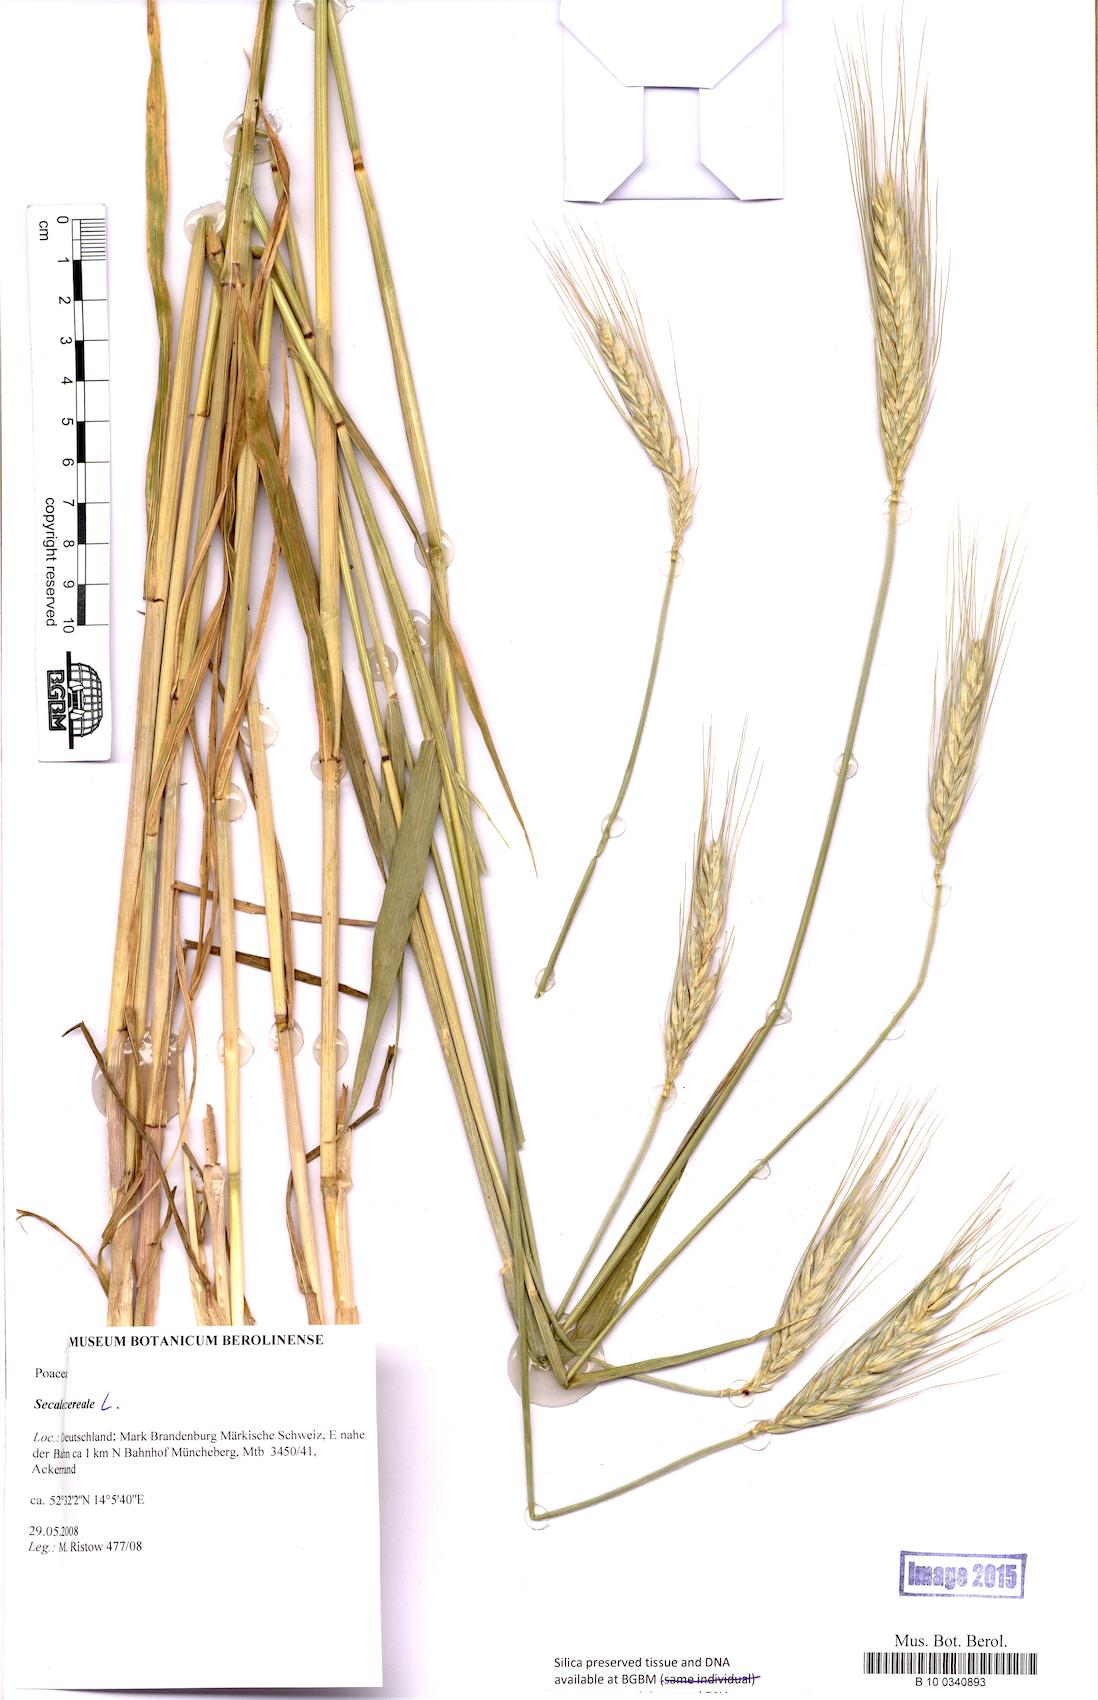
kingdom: Plantae
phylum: Tracheophyta
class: Liliopsida
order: Poales
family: Poaceae
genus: Secale
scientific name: Secale cereale
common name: Rye
